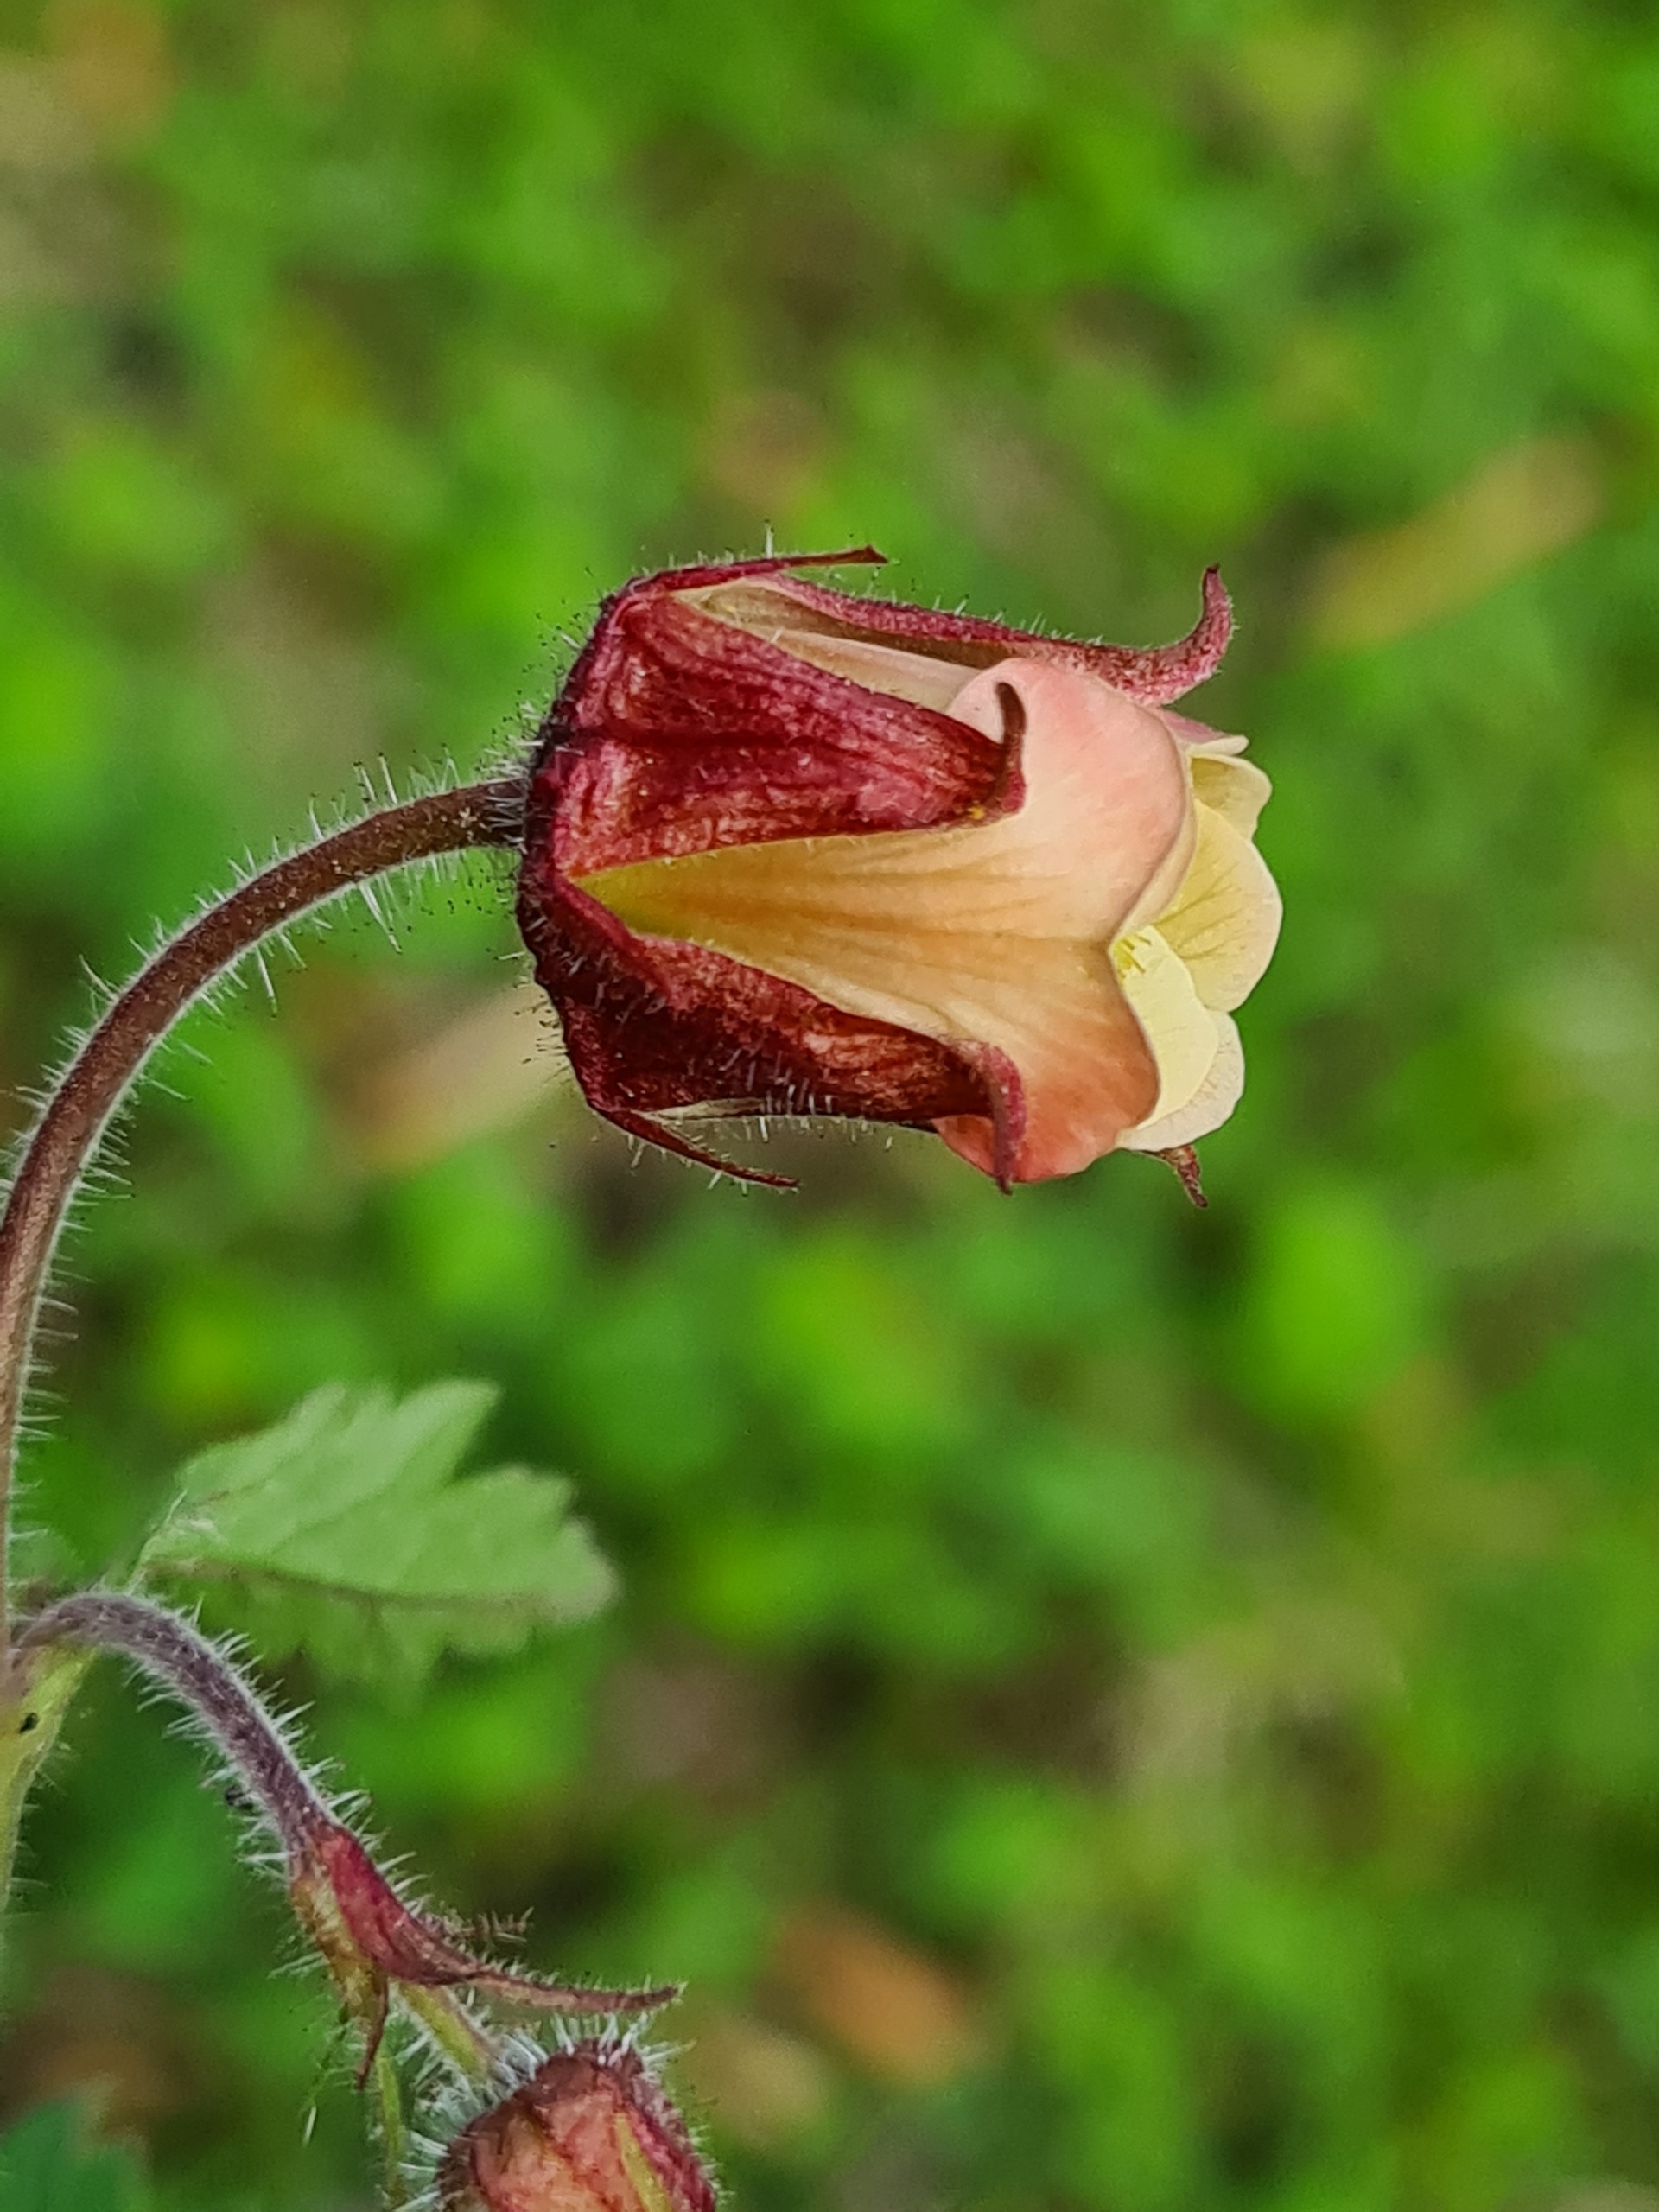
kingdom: Plantae
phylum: Tracheophyta
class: Magnoliopsida
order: Rosales
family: Rosaceae
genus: Geum
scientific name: Geum rivale
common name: Eng-nellikerod
